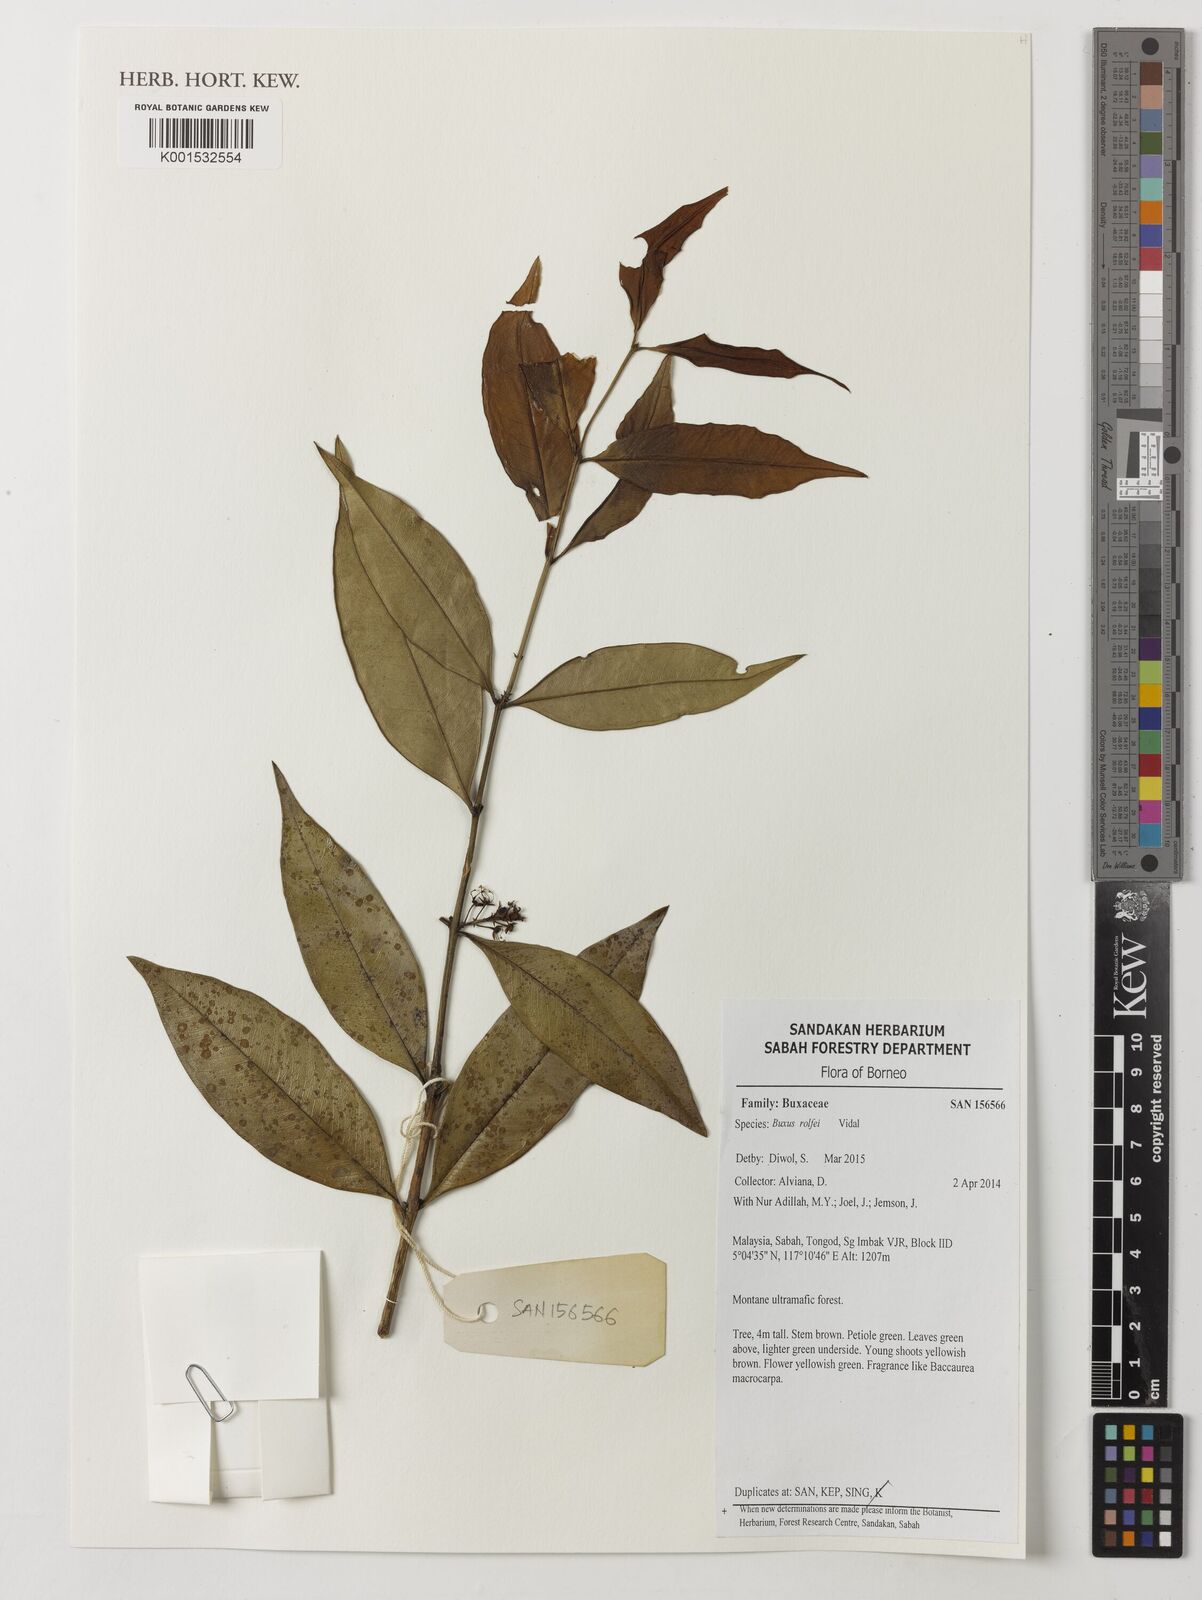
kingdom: Plantae
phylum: Tracheophyta
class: Magnoliopsida
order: Buxales
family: Buxaceae
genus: Buxus
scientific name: Buxus rolfei
